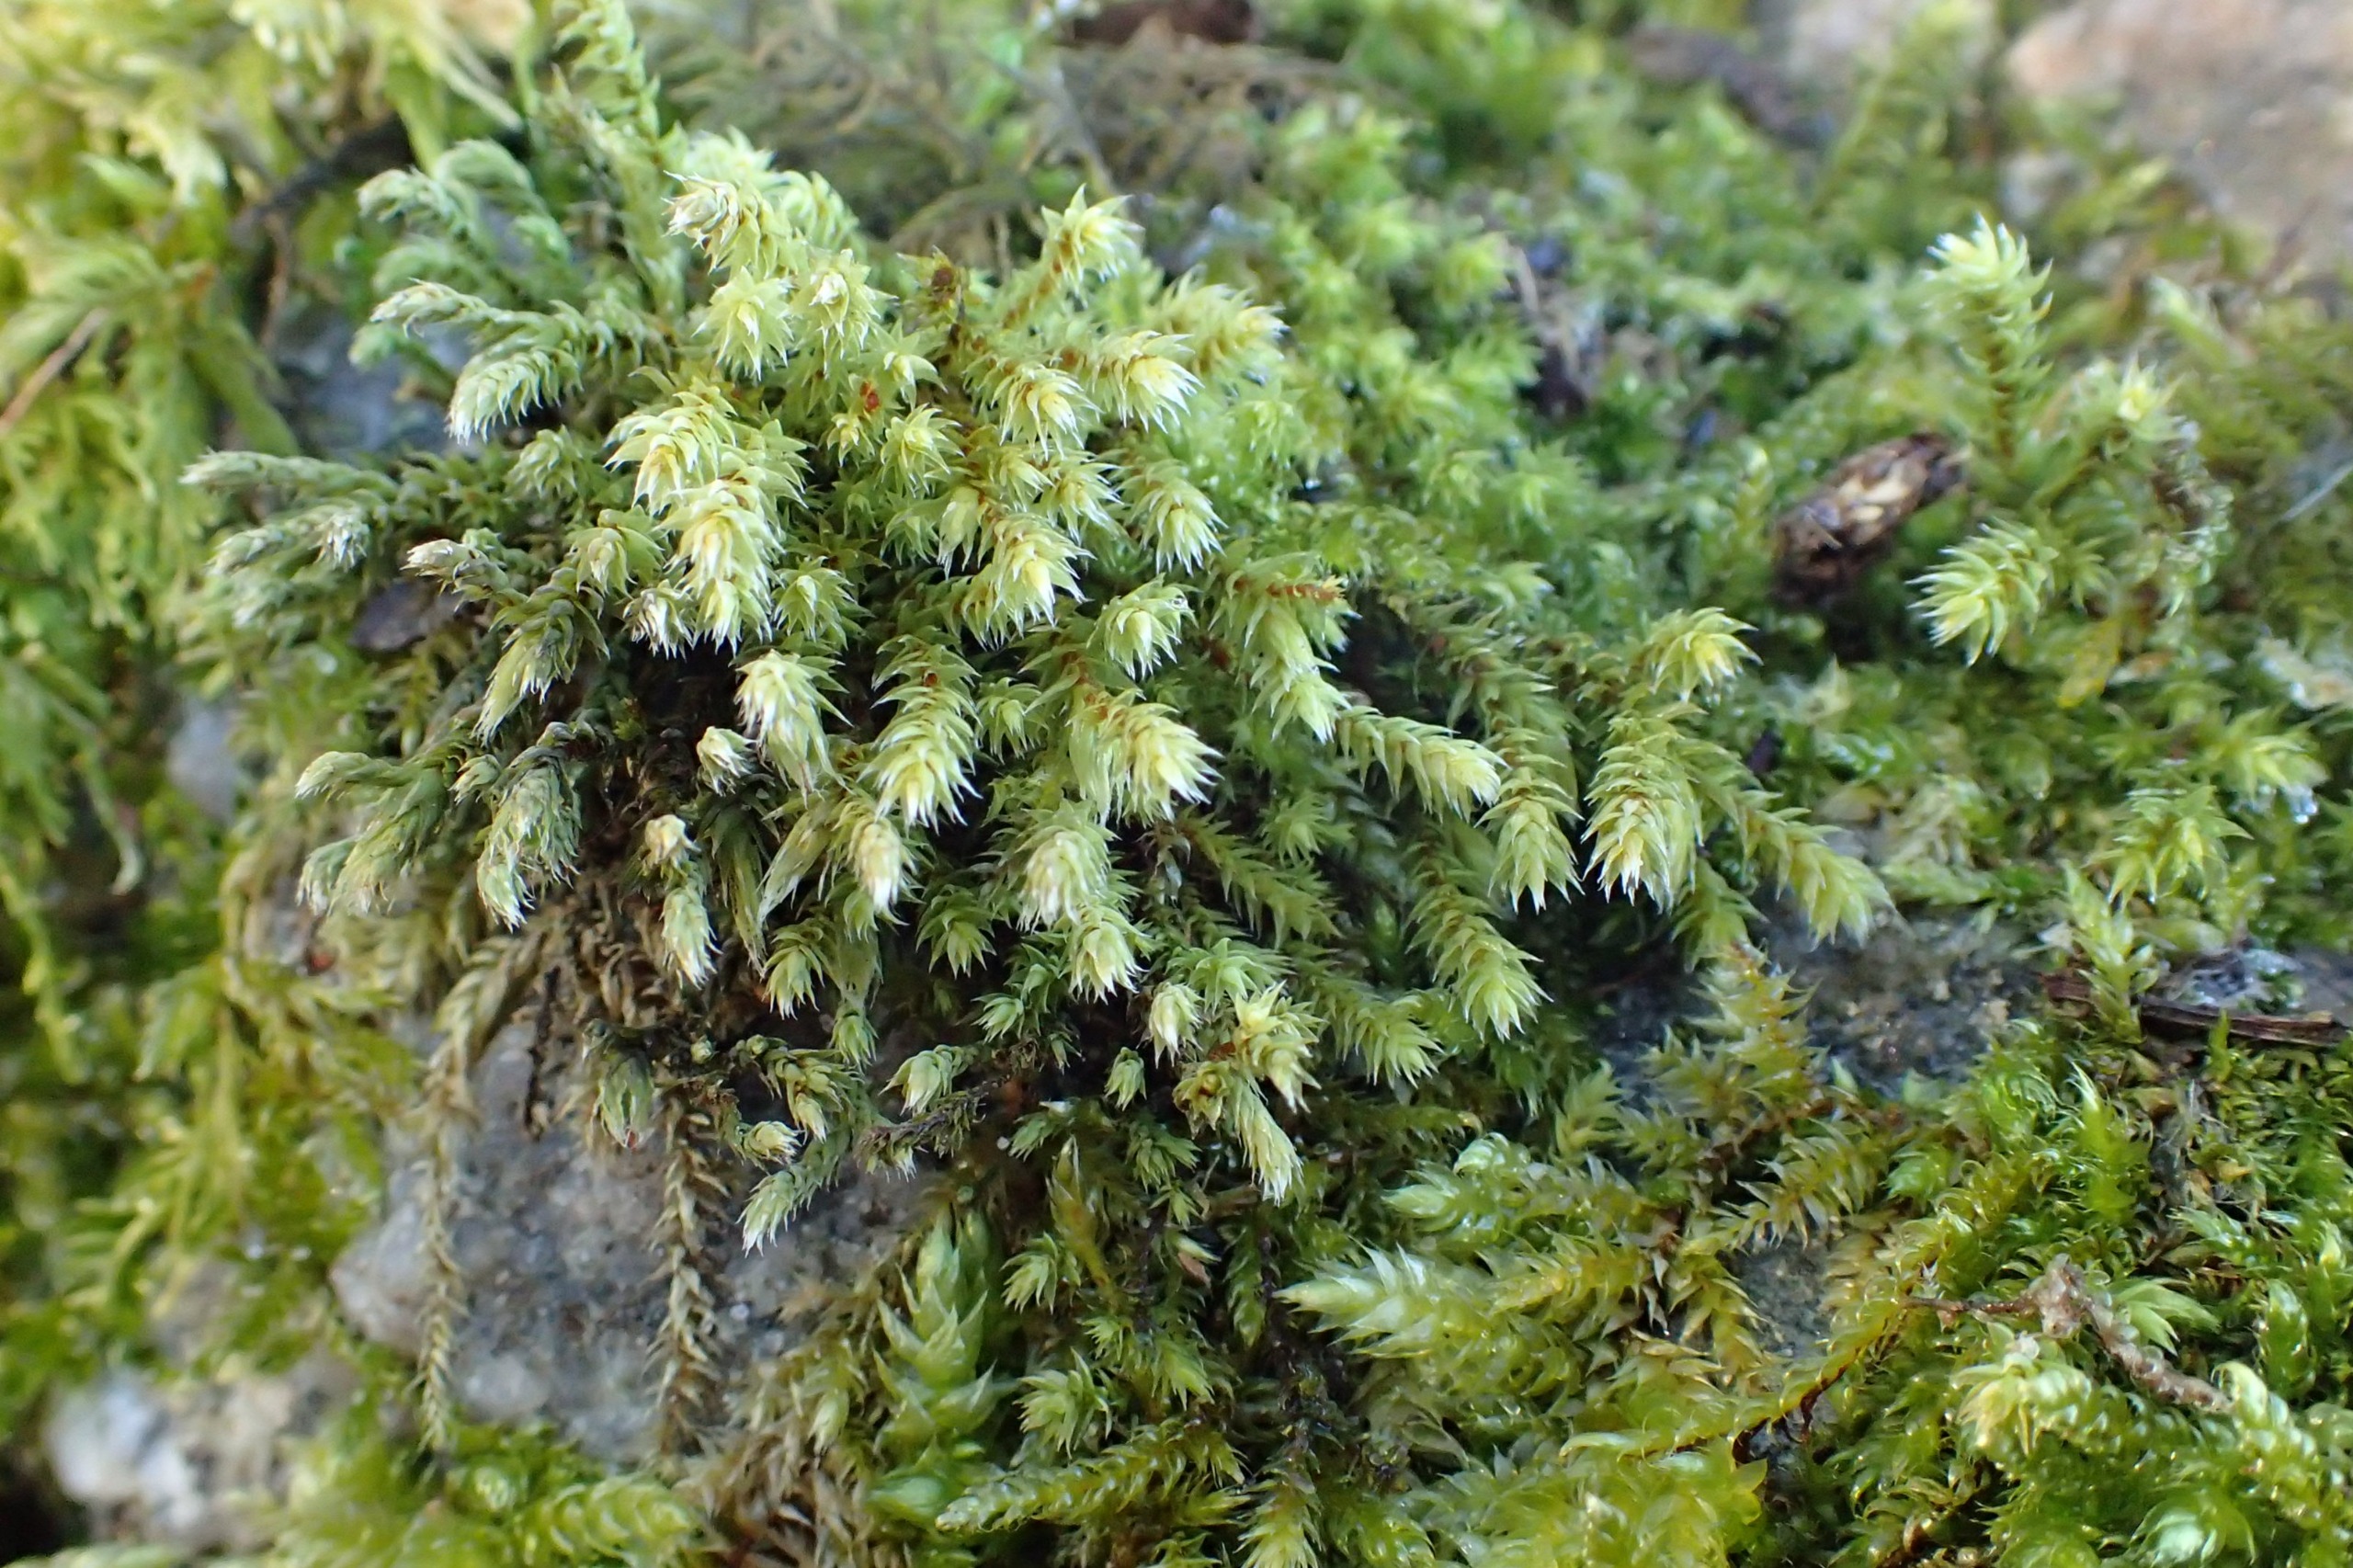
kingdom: Plantae
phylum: Bryophyta
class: Bryopsida
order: Hedwigiales
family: Hedwigiaceae
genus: Hedwigia
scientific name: Hedwigia ciliata
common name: Hvidspidset hedwigia
